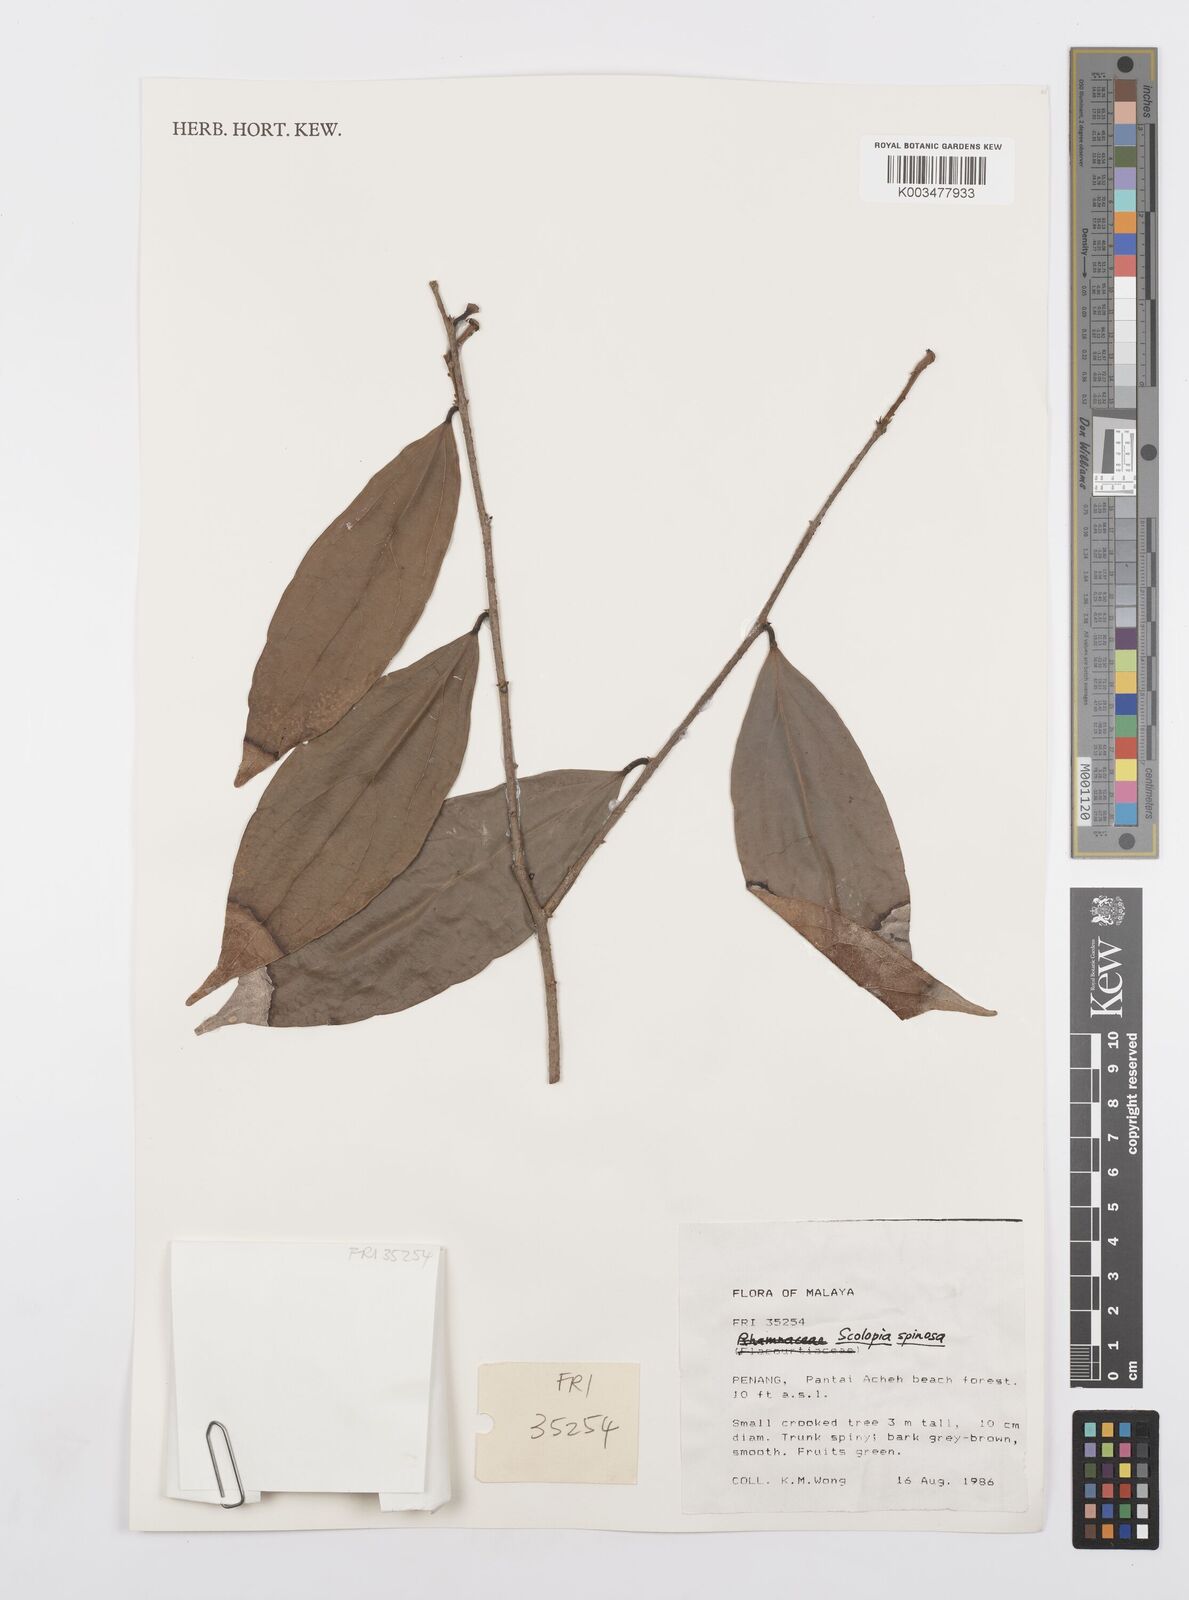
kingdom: Plantae
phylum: Tracheophyta
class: Magnoliopsida
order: Malpighiales
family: Salicaceae
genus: Scolopia
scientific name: Scolopia spinosa
